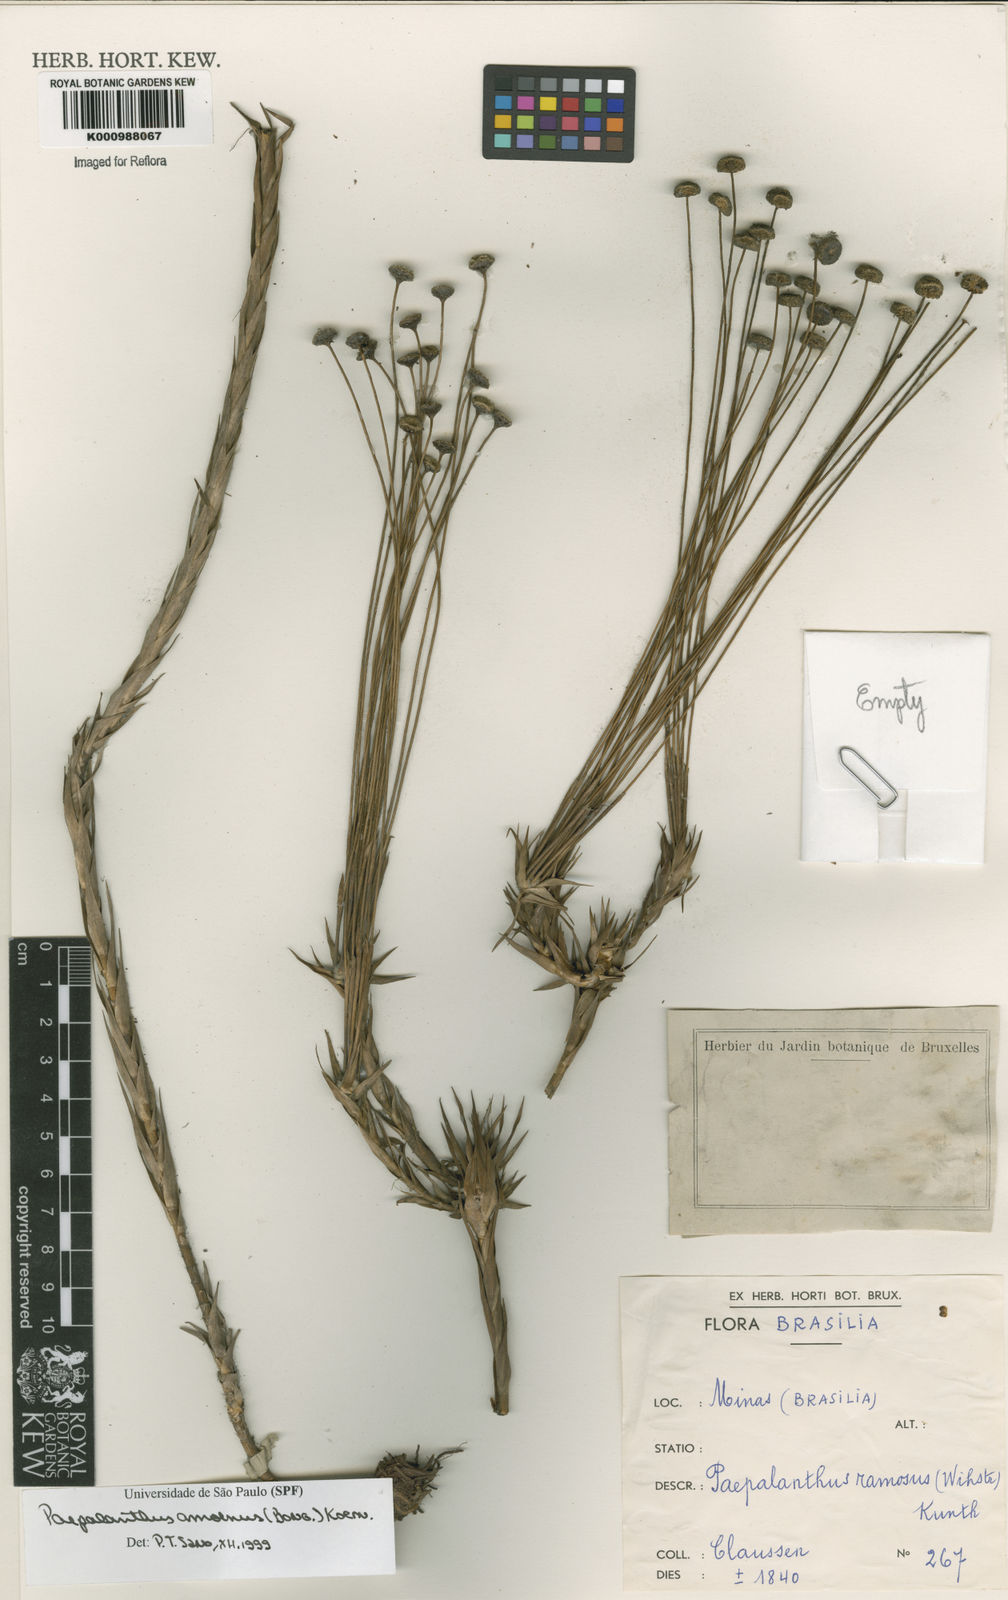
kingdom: Plantae
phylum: Tracheophyta
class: Liliopsida
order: Poales
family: Eriocaulaceae
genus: Paepalanthus
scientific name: Paepalanthus
